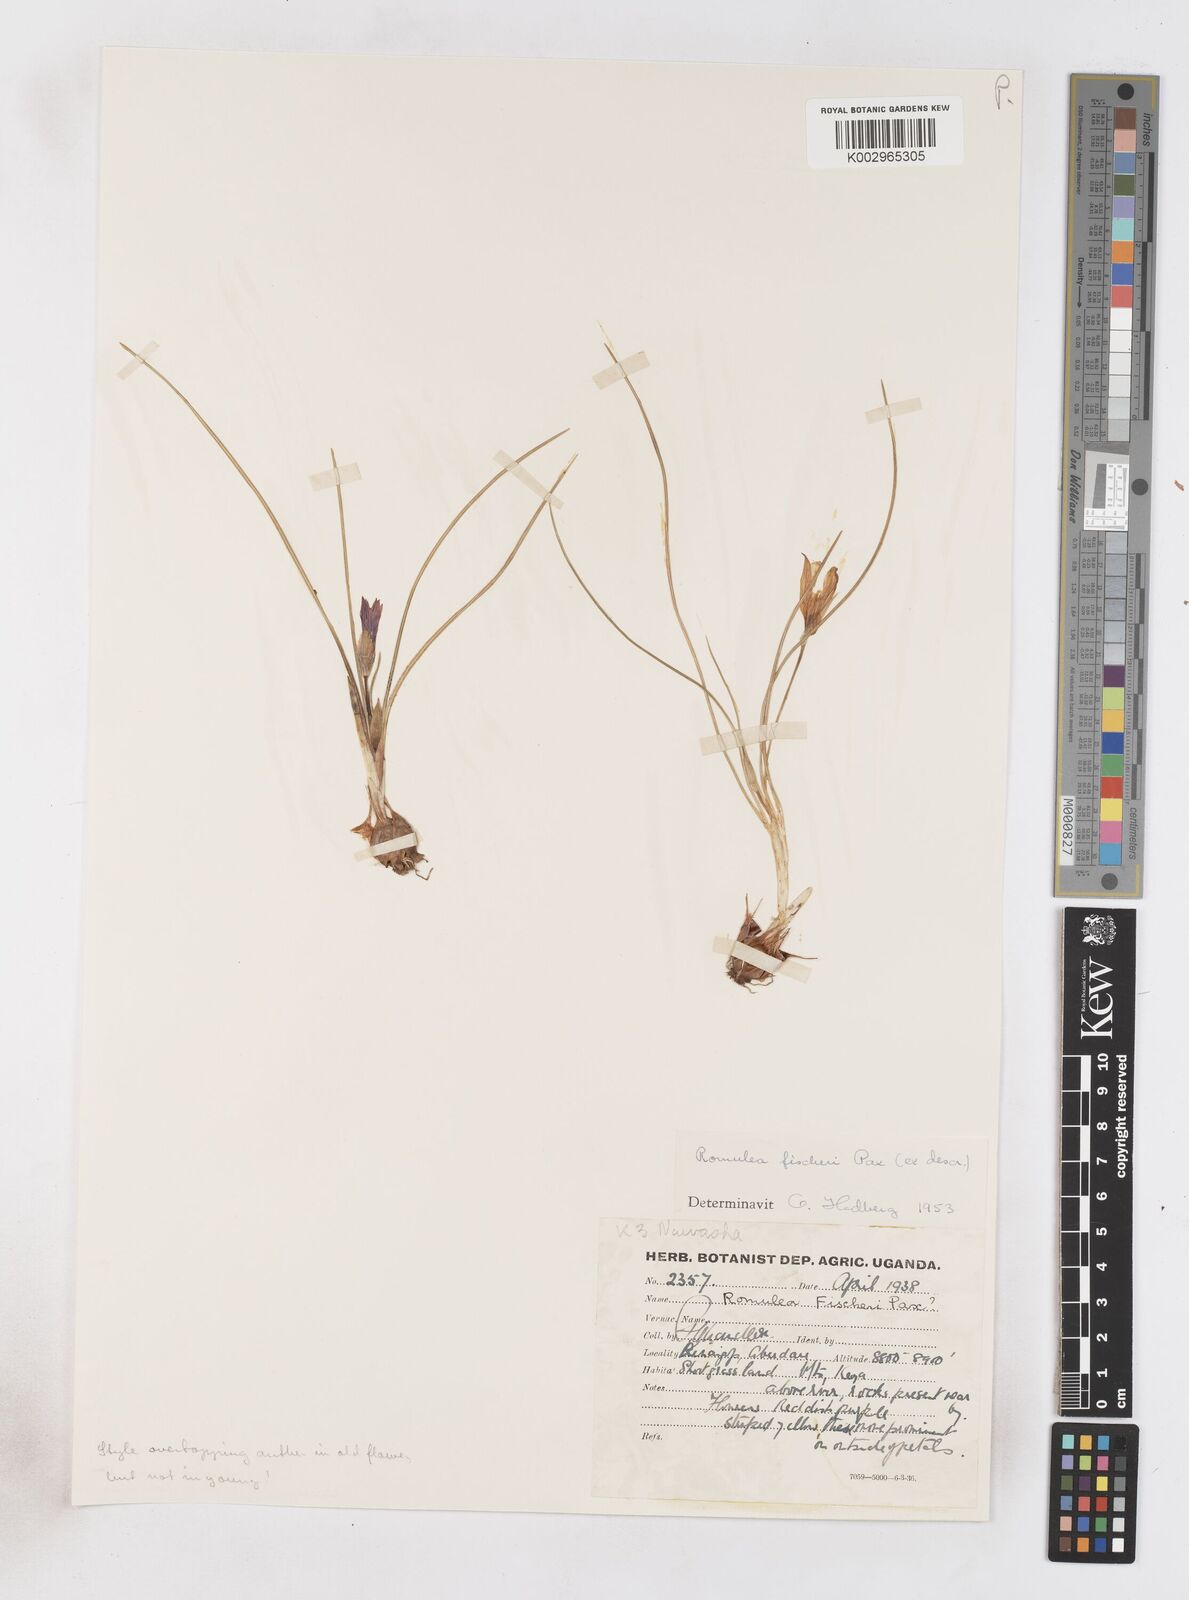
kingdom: Plantae
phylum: Tracheophyta
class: Liliopsida
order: Asparagales
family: Iridaceae
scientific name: Iridaceae
